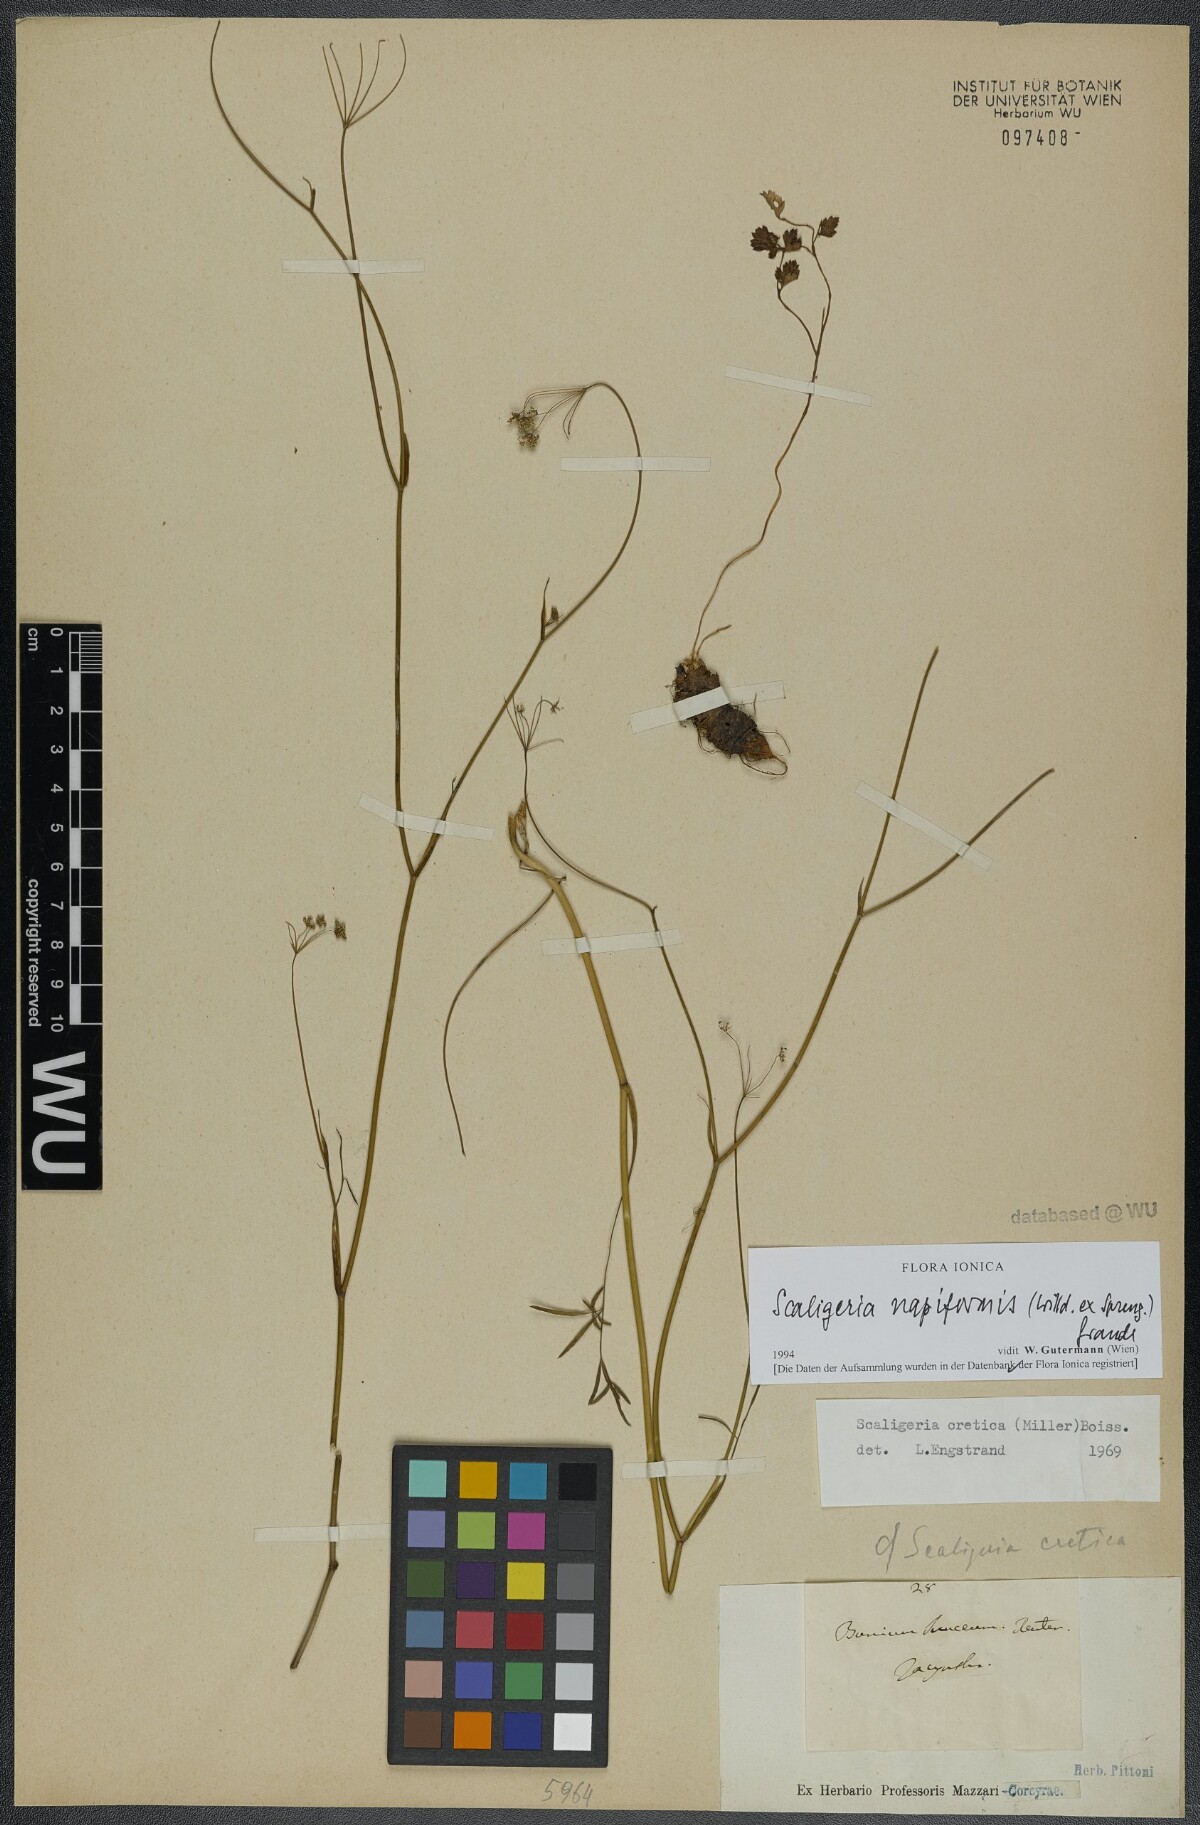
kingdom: Plantae
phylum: Tracheophyta
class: Magnoliopsida
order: Apiales
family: Apiaceae
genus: Scaligeria
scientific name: Scaligeria napiformis
